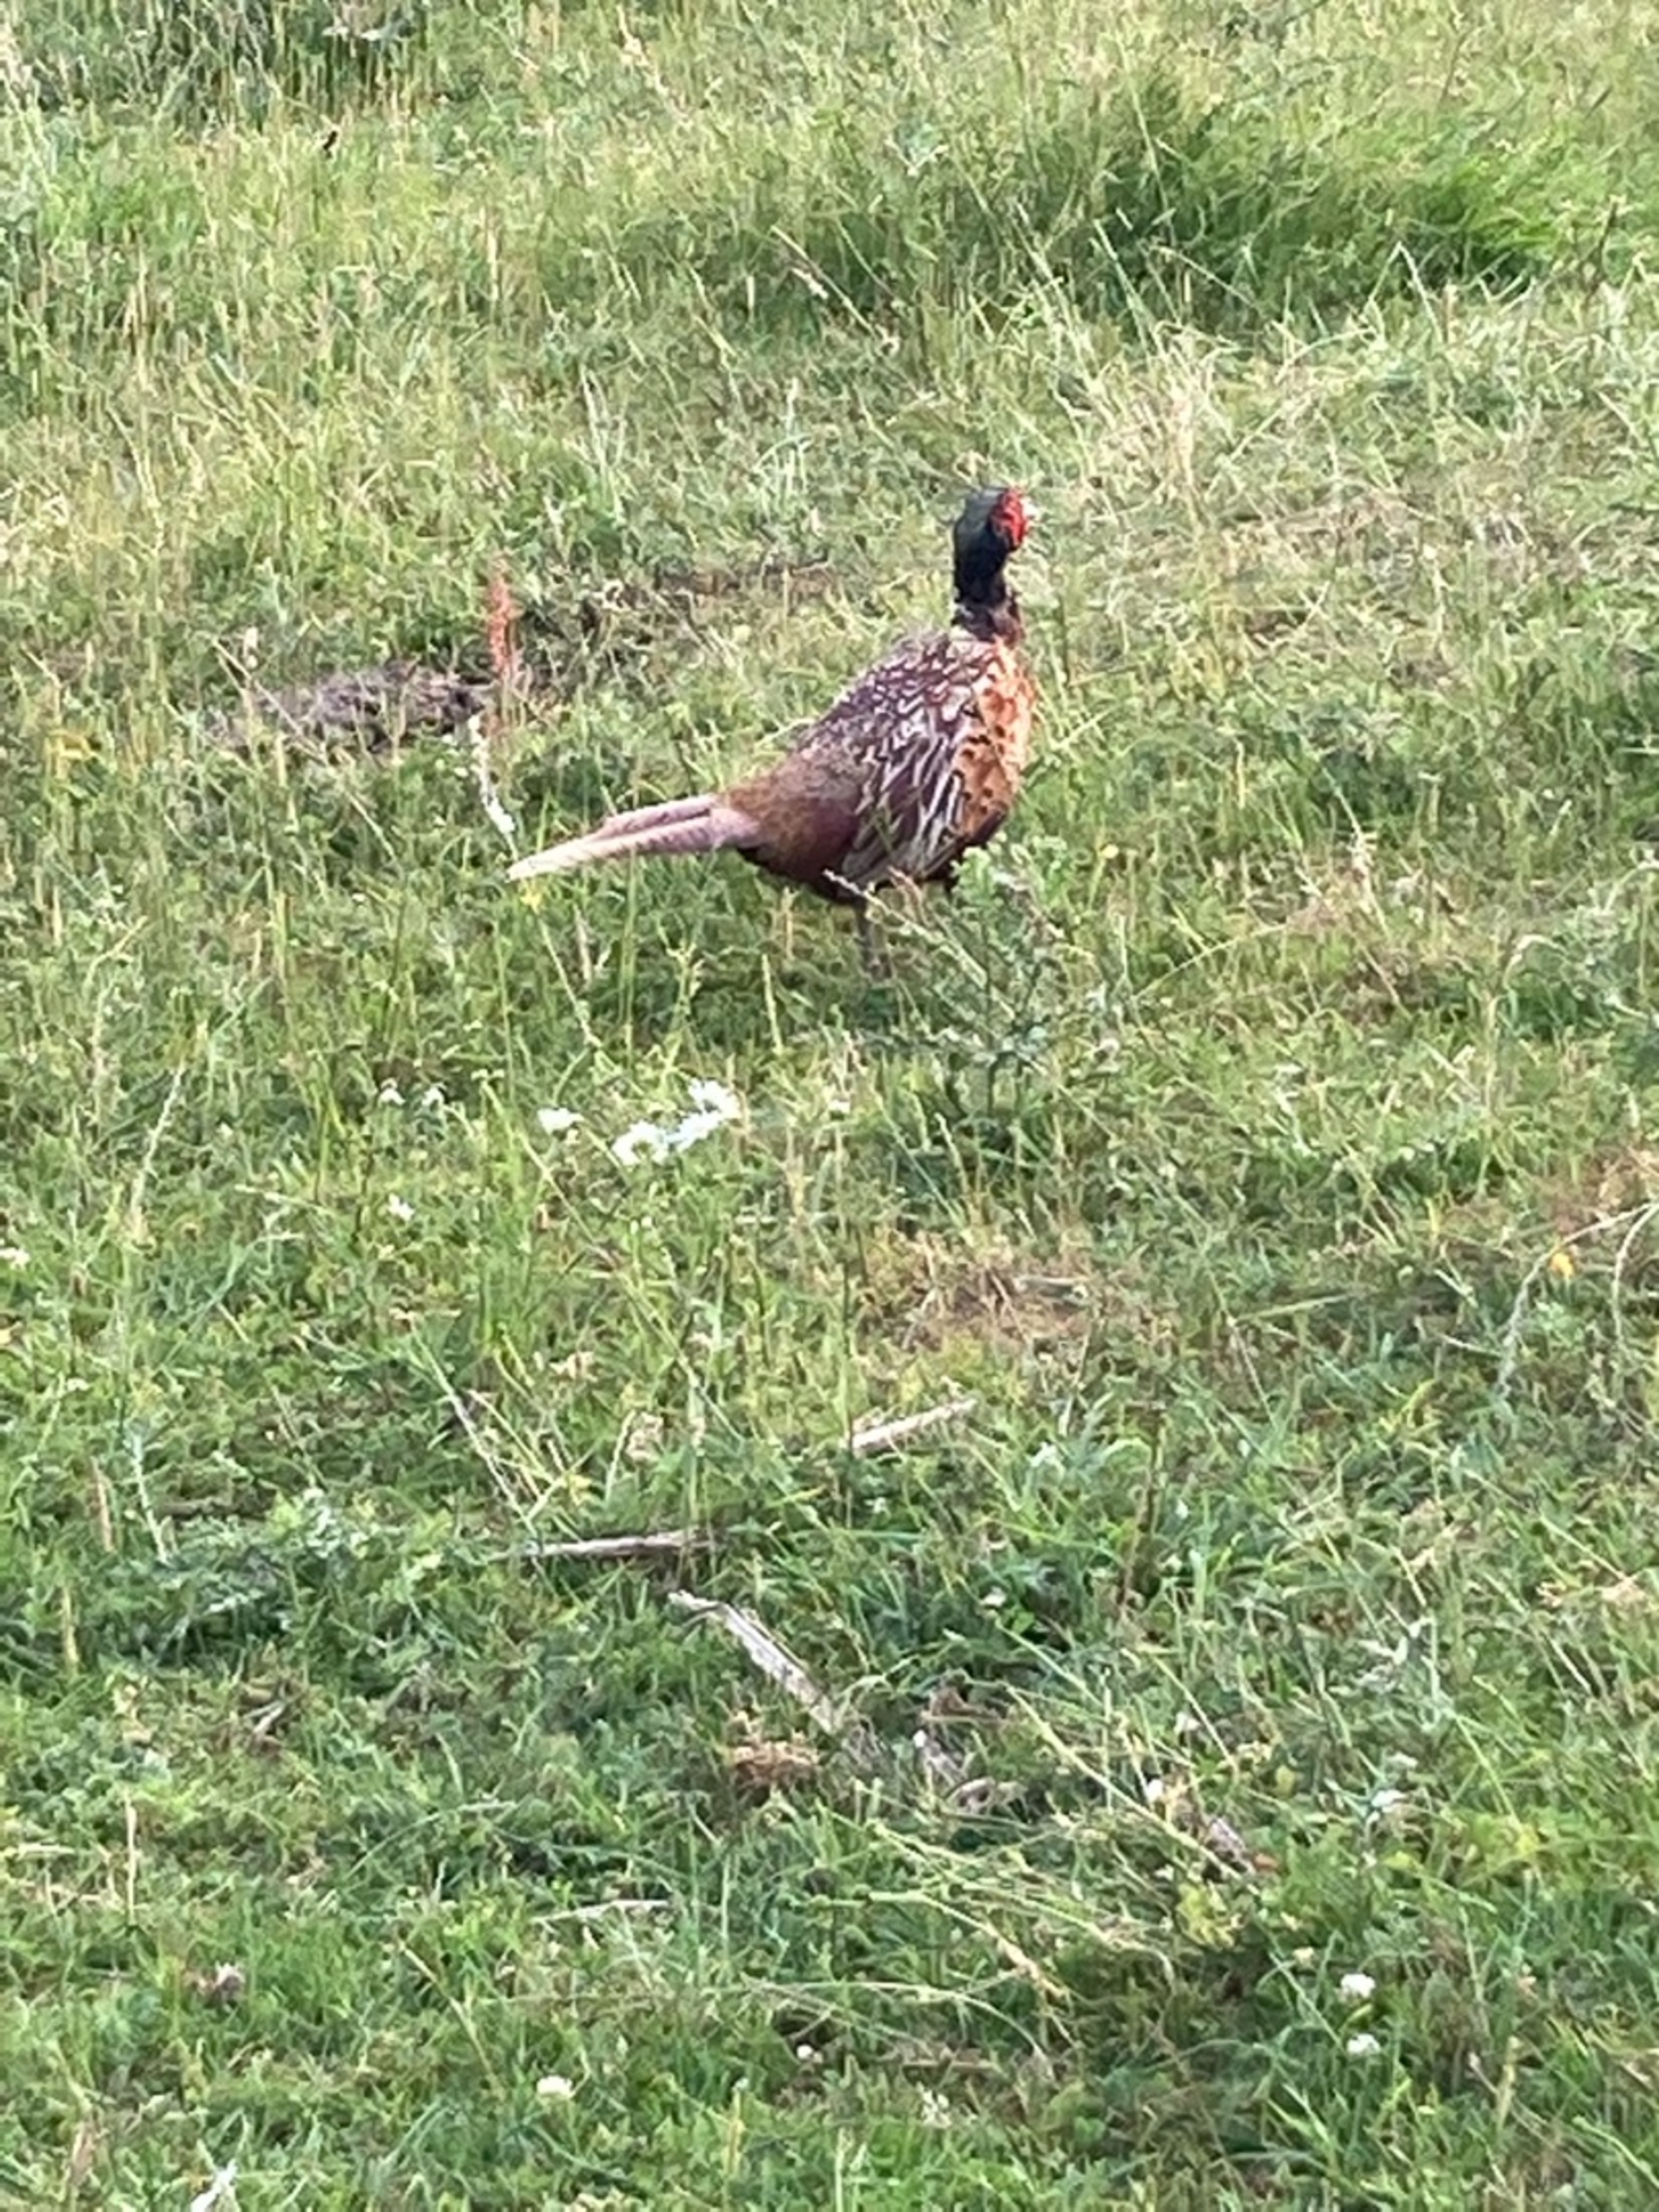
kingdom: Animalia
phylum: Chordata
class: Aves
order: Galliformes
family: Phasianidae
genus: Phasianus
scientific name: Phasianus colchicus
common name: Fasan
